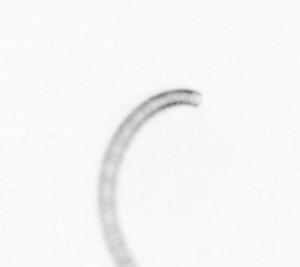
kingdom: Chromista
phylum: Ochrophyta
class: Bacillariophyceae
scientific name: Bacillariophyceae
